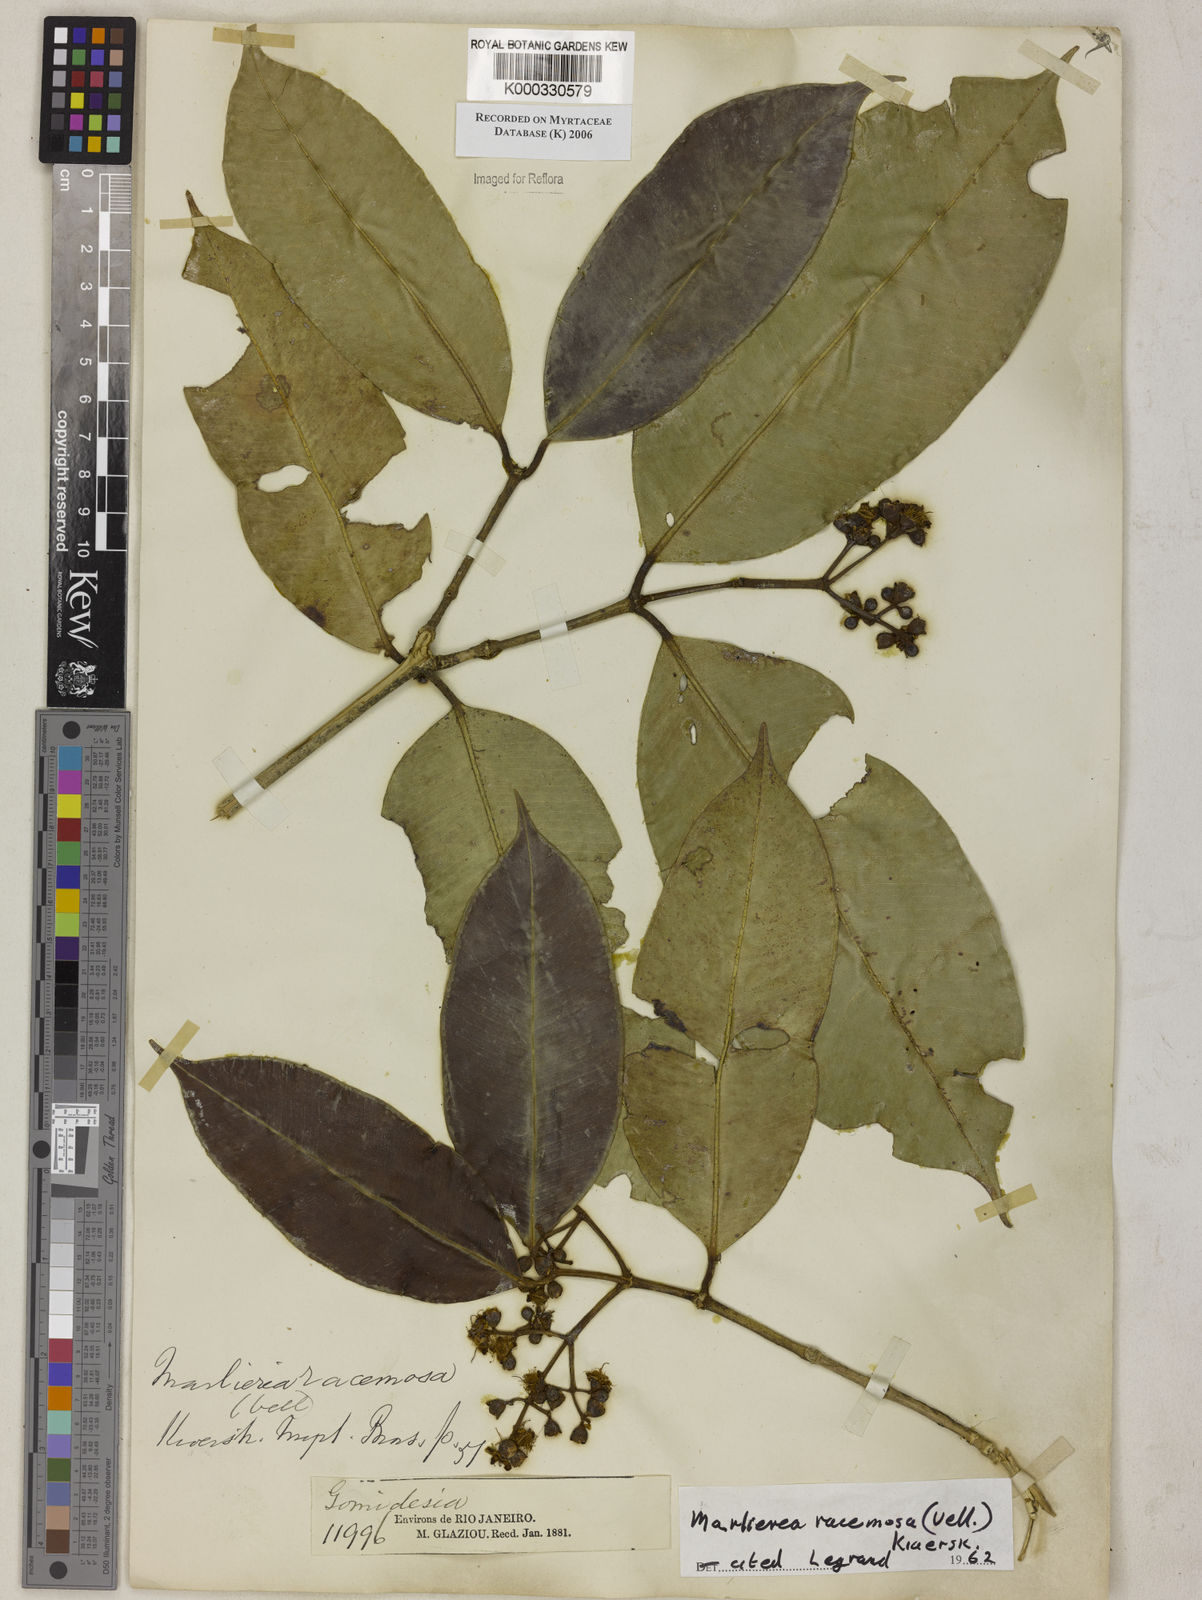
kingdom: Plantae
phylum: Tracheophyta
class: Magnoliopsida
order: Myrtales
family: Myrtaceae
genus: Myrcia
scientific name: Myrcia vellozoi
